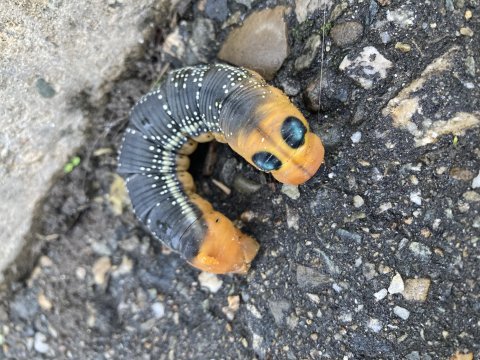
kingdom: Animalia
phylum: Arthropoda
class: Insecta
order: Lepidoptera
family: Nymphalidae
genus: Hypothyris
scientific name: Hypothyris daphnis
